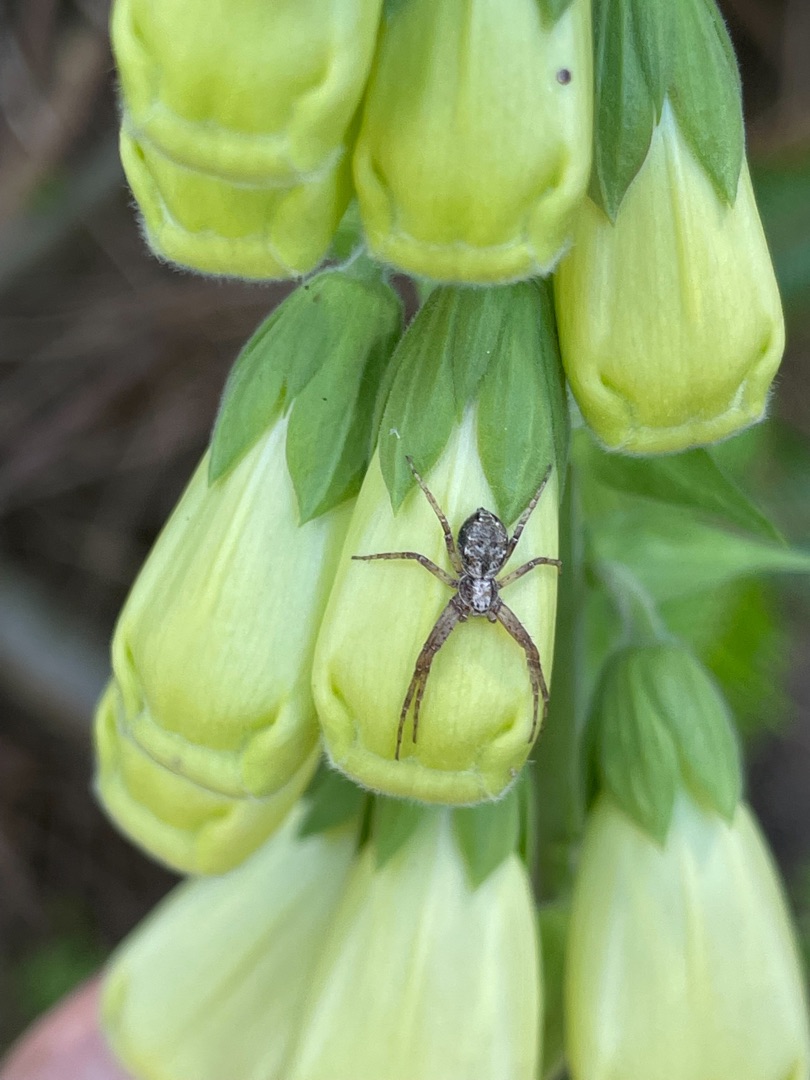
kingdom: Animalia
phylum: Arthropoda
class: Arachnida
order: Araneae
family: Philodromidae
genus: Philodromus
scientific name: Philodromus
